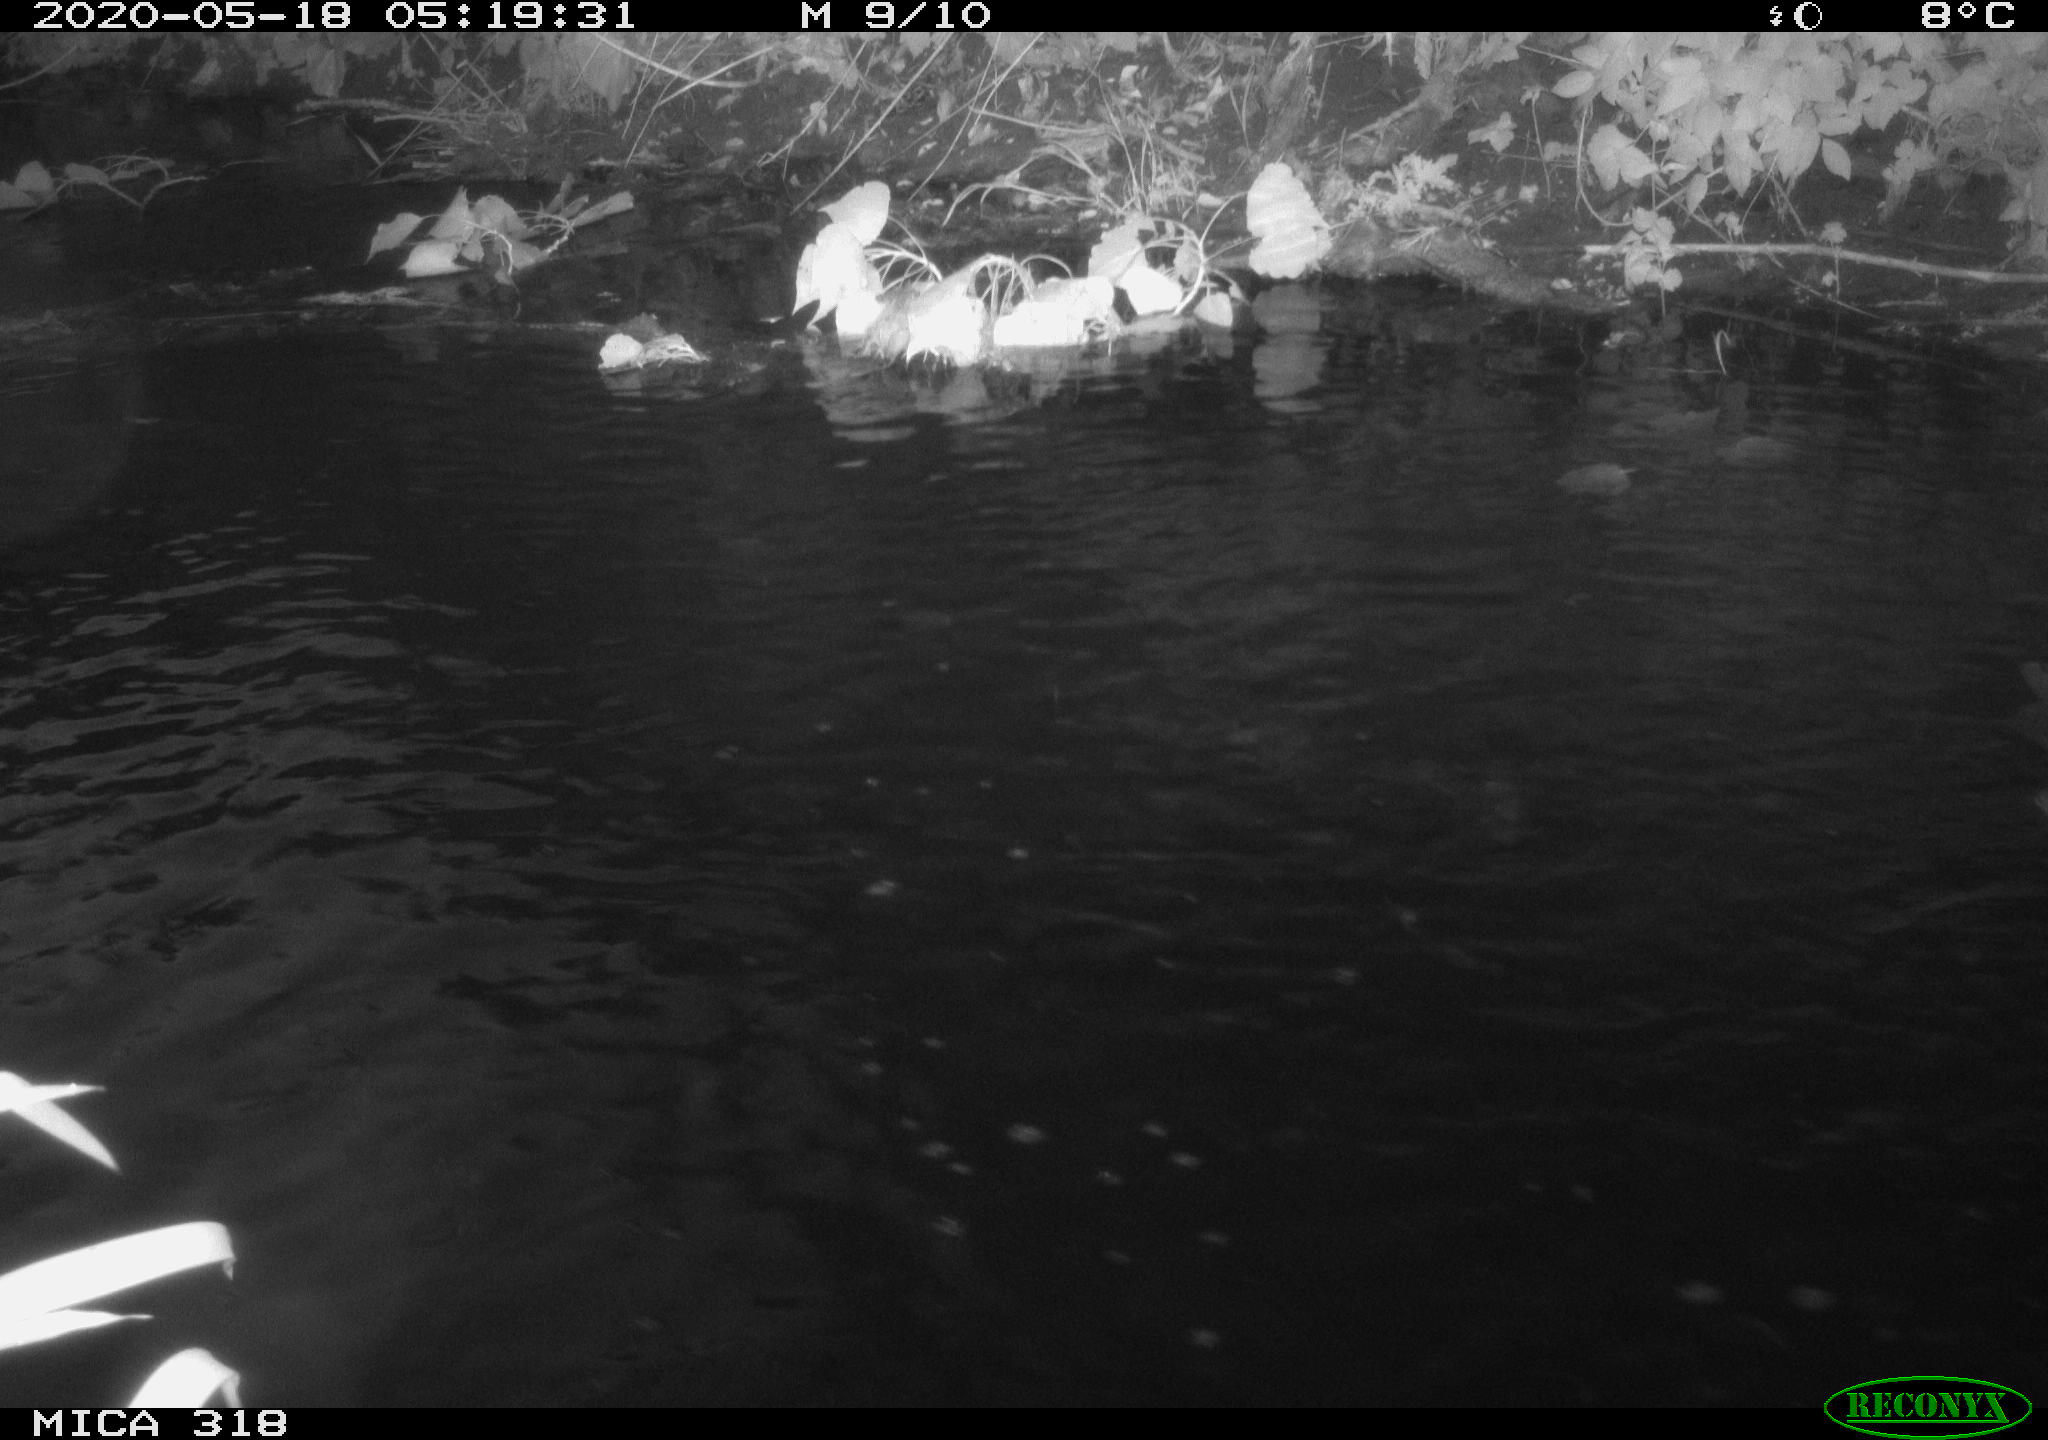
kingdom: Animalia
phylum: Chordata
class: Aves
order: Gruiformes
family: Rallidae
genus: Gallinula
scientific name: Gallinula chloropus
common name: Common moorhen
